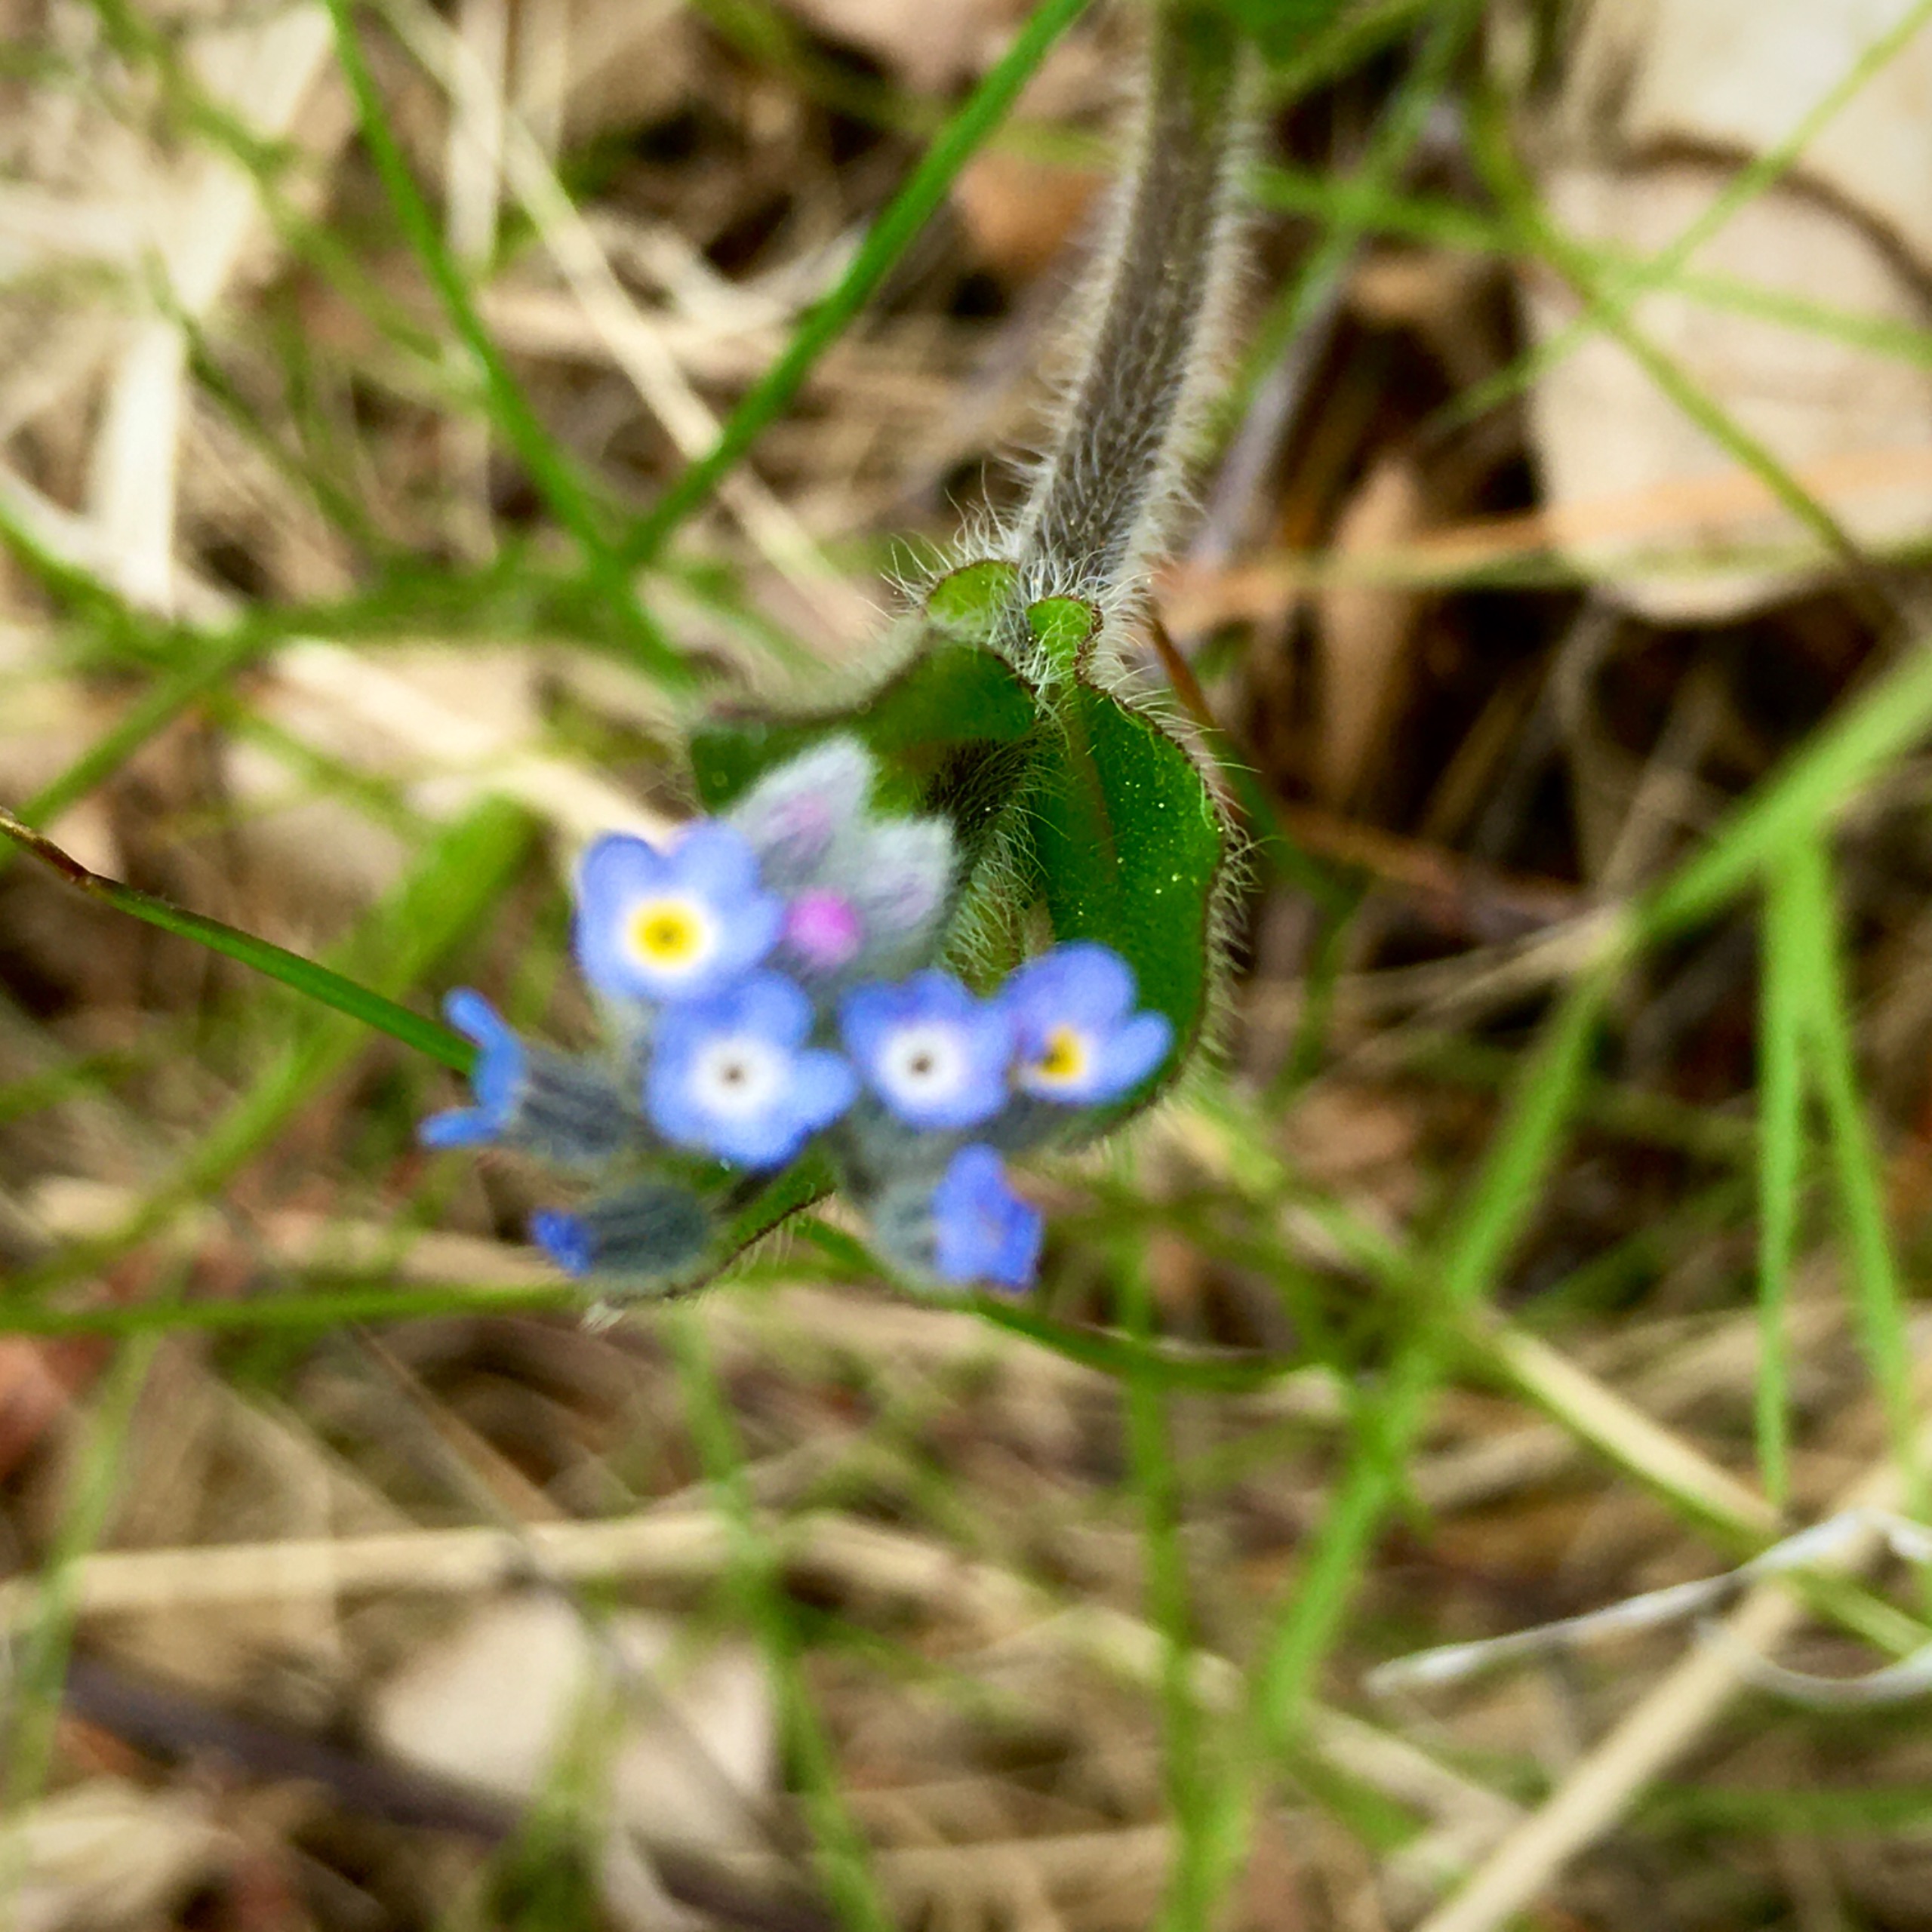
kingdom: Plantae
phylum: Tracheophyta
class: Magnoliopsida
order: Boraginales
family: Boraginaceae
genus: Myosotis
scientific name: Myosotis ramosissima
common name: Bakke-forglemmigej
